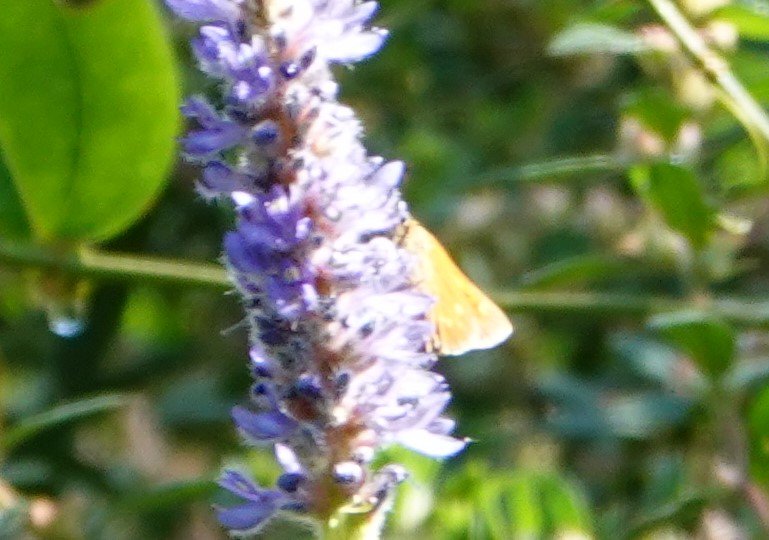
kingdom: Animalia
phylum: Arthropoda
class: Insecta
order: Lepidoptera
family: Hesperiidae
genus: Poanes
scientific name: Poanes yehl
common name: Yehl Skipper
